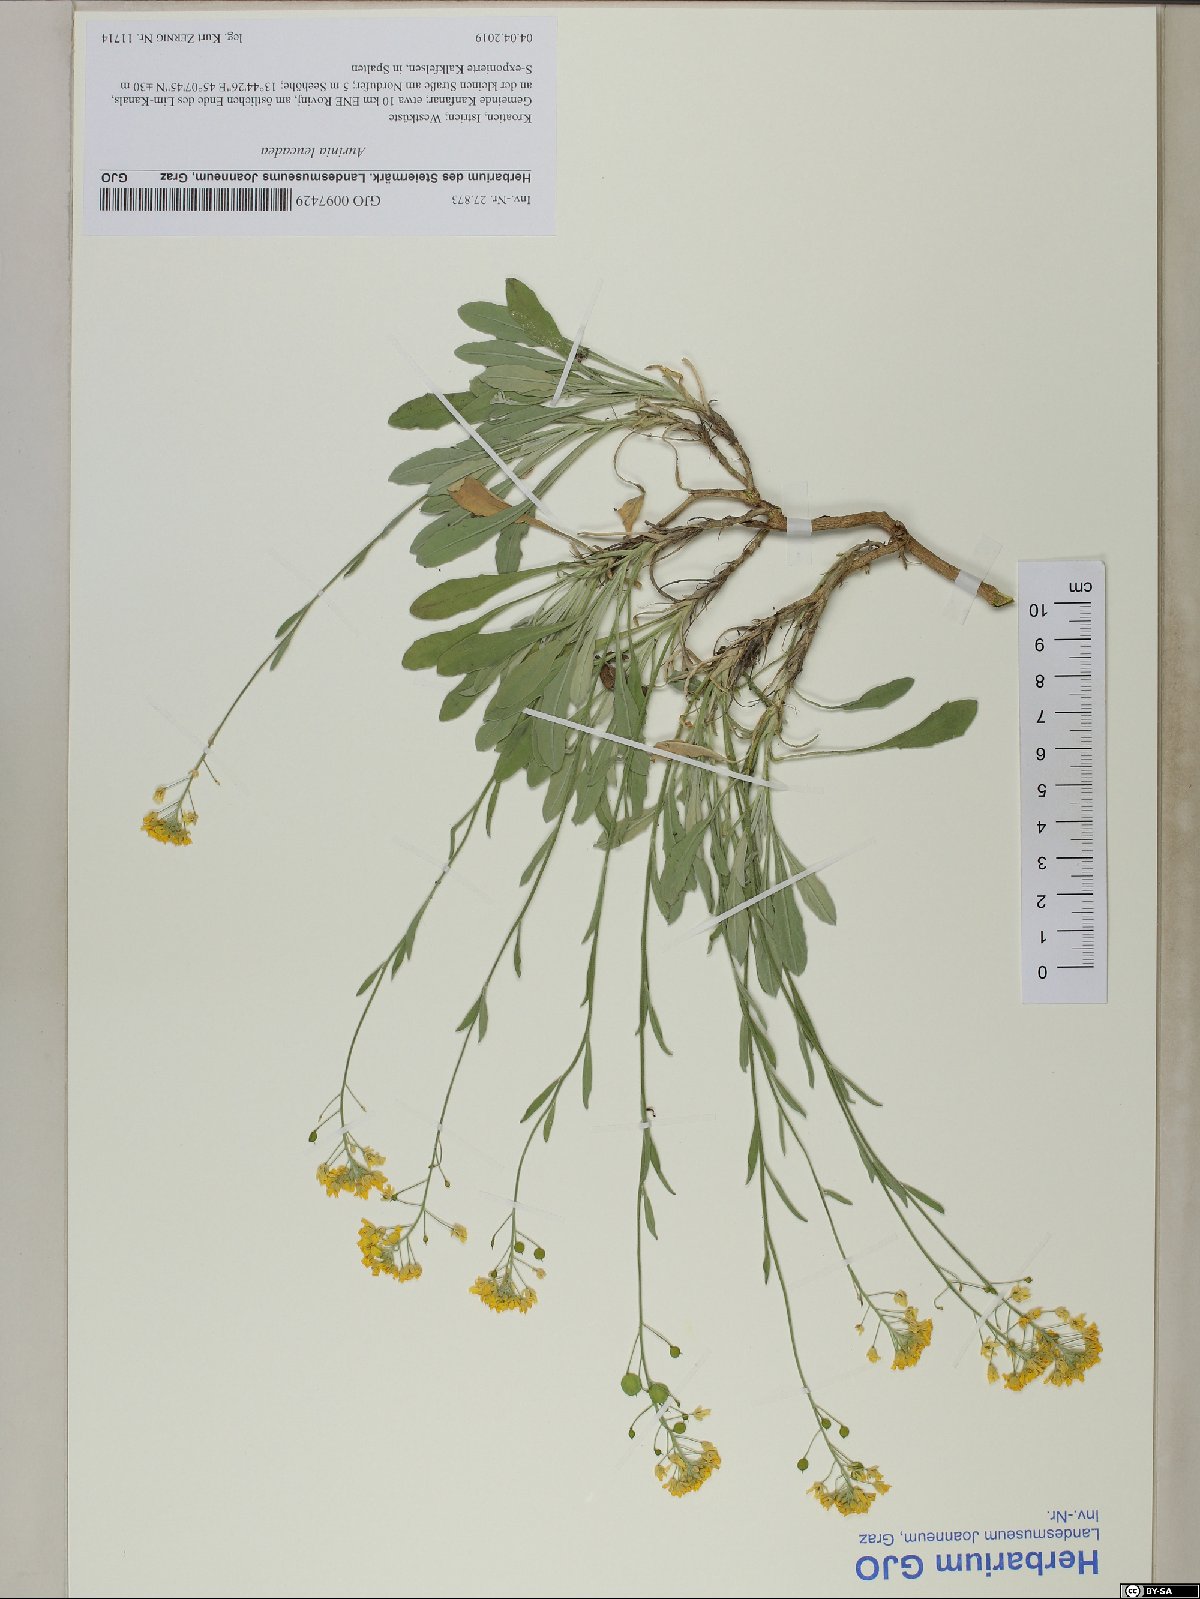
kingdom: Plantae
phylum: Tracheophyta
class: Magnoliopsida
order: Brassicales
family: Brassicaceae
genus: Aurinia
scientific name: Aurinia leucadea
